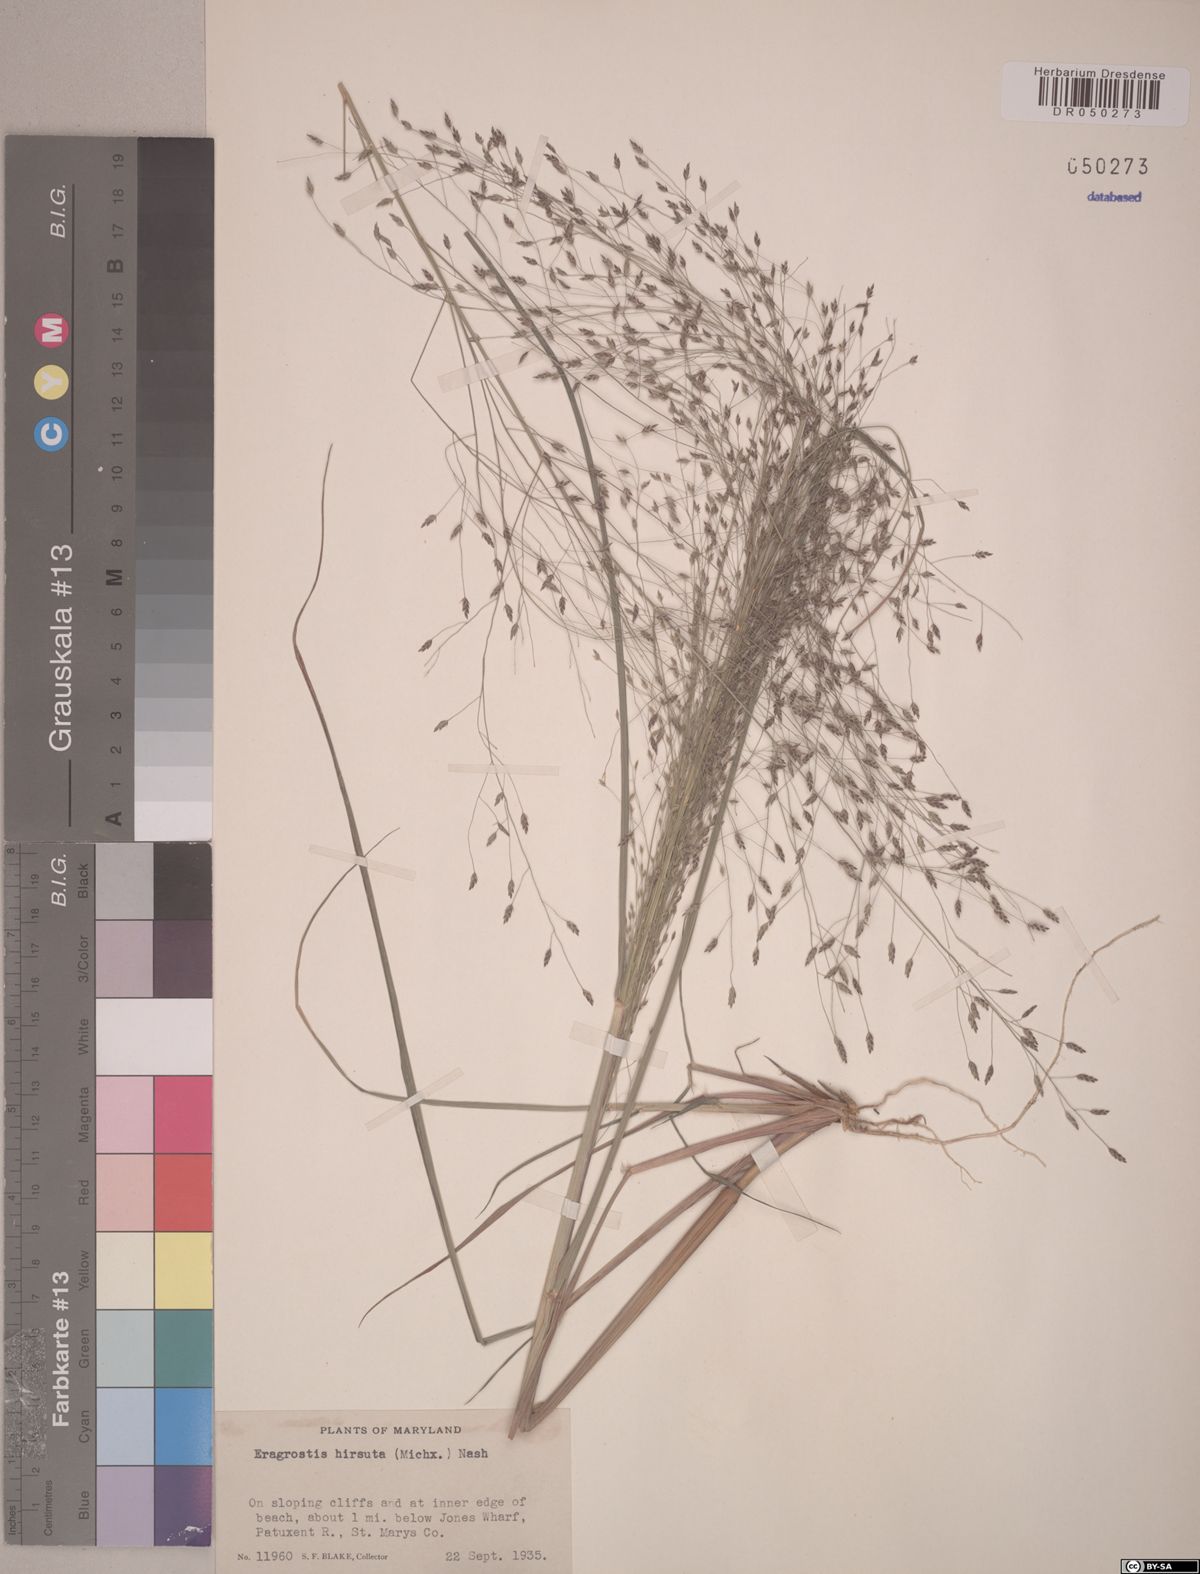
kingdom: Plantae
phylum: Tracheophyta
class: Liliopsida
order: Poales
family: Poaceae
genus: Eragrostis
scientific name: Eragrostis hirsuta
